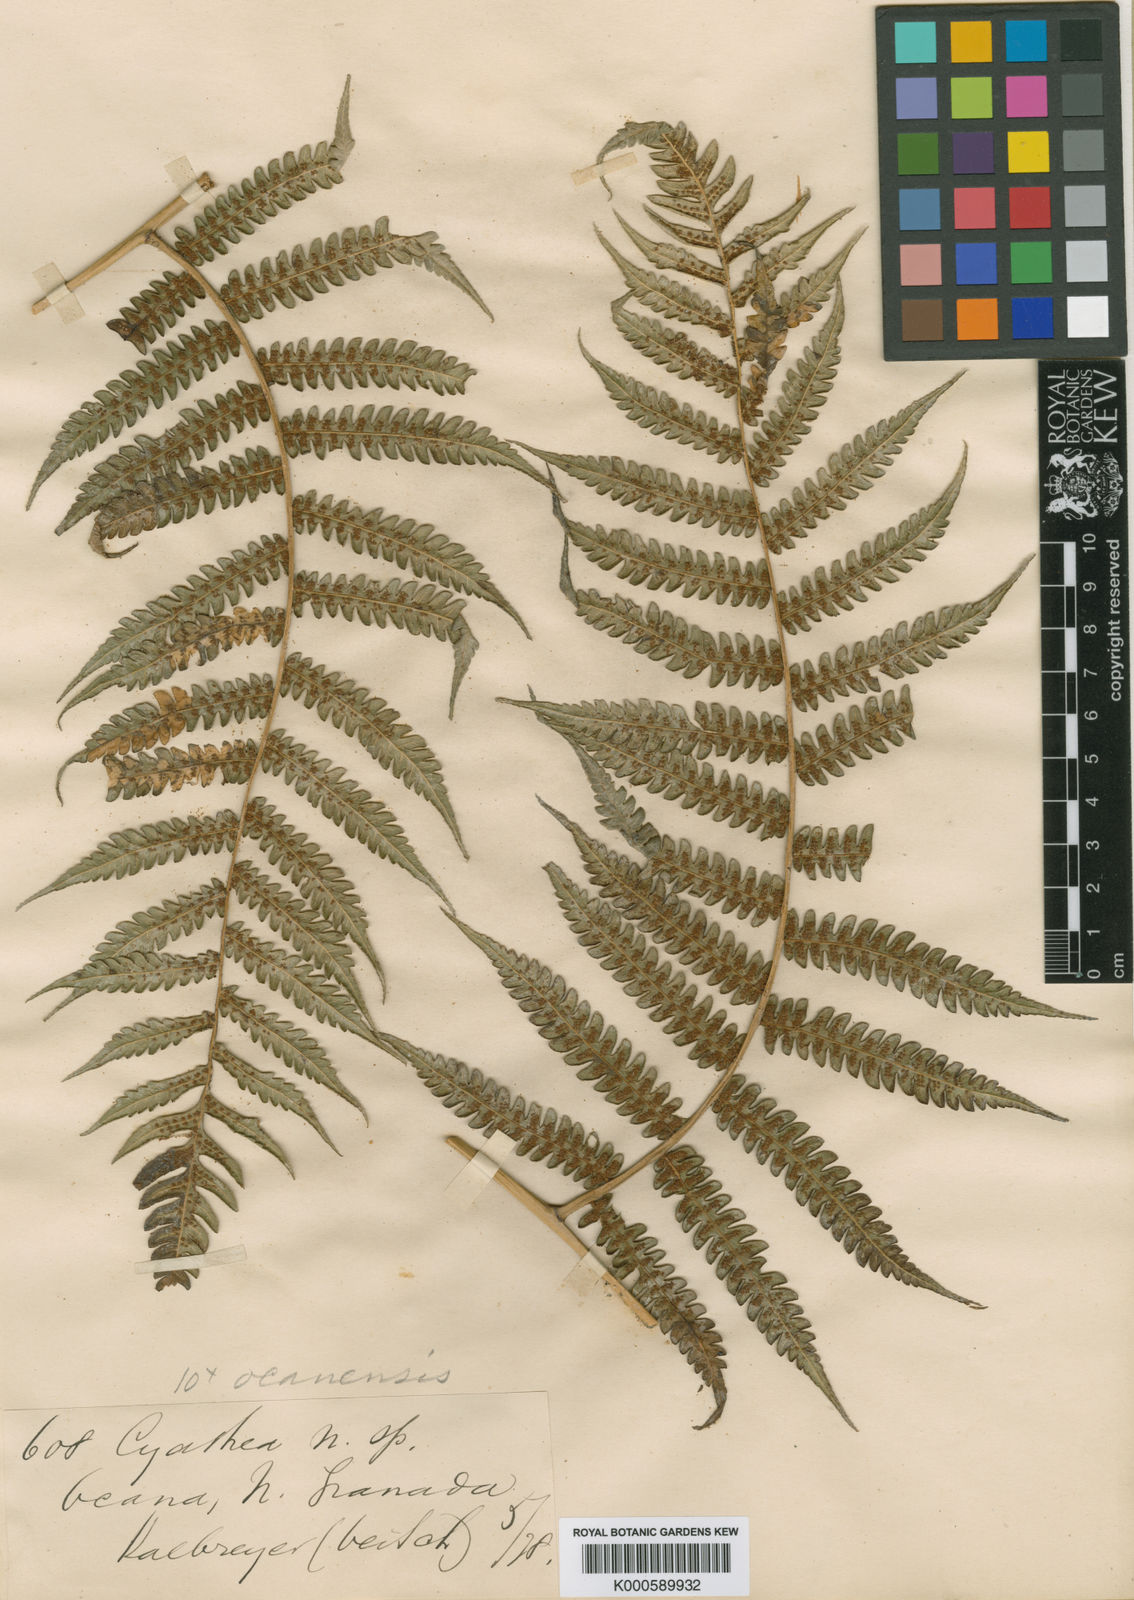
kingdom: Plantae
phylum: Tracheophyta
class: Polypodiopsida
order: Cyatheales
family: Cyatheaceae
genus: Cyathea
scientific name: Cyathea caracasana
